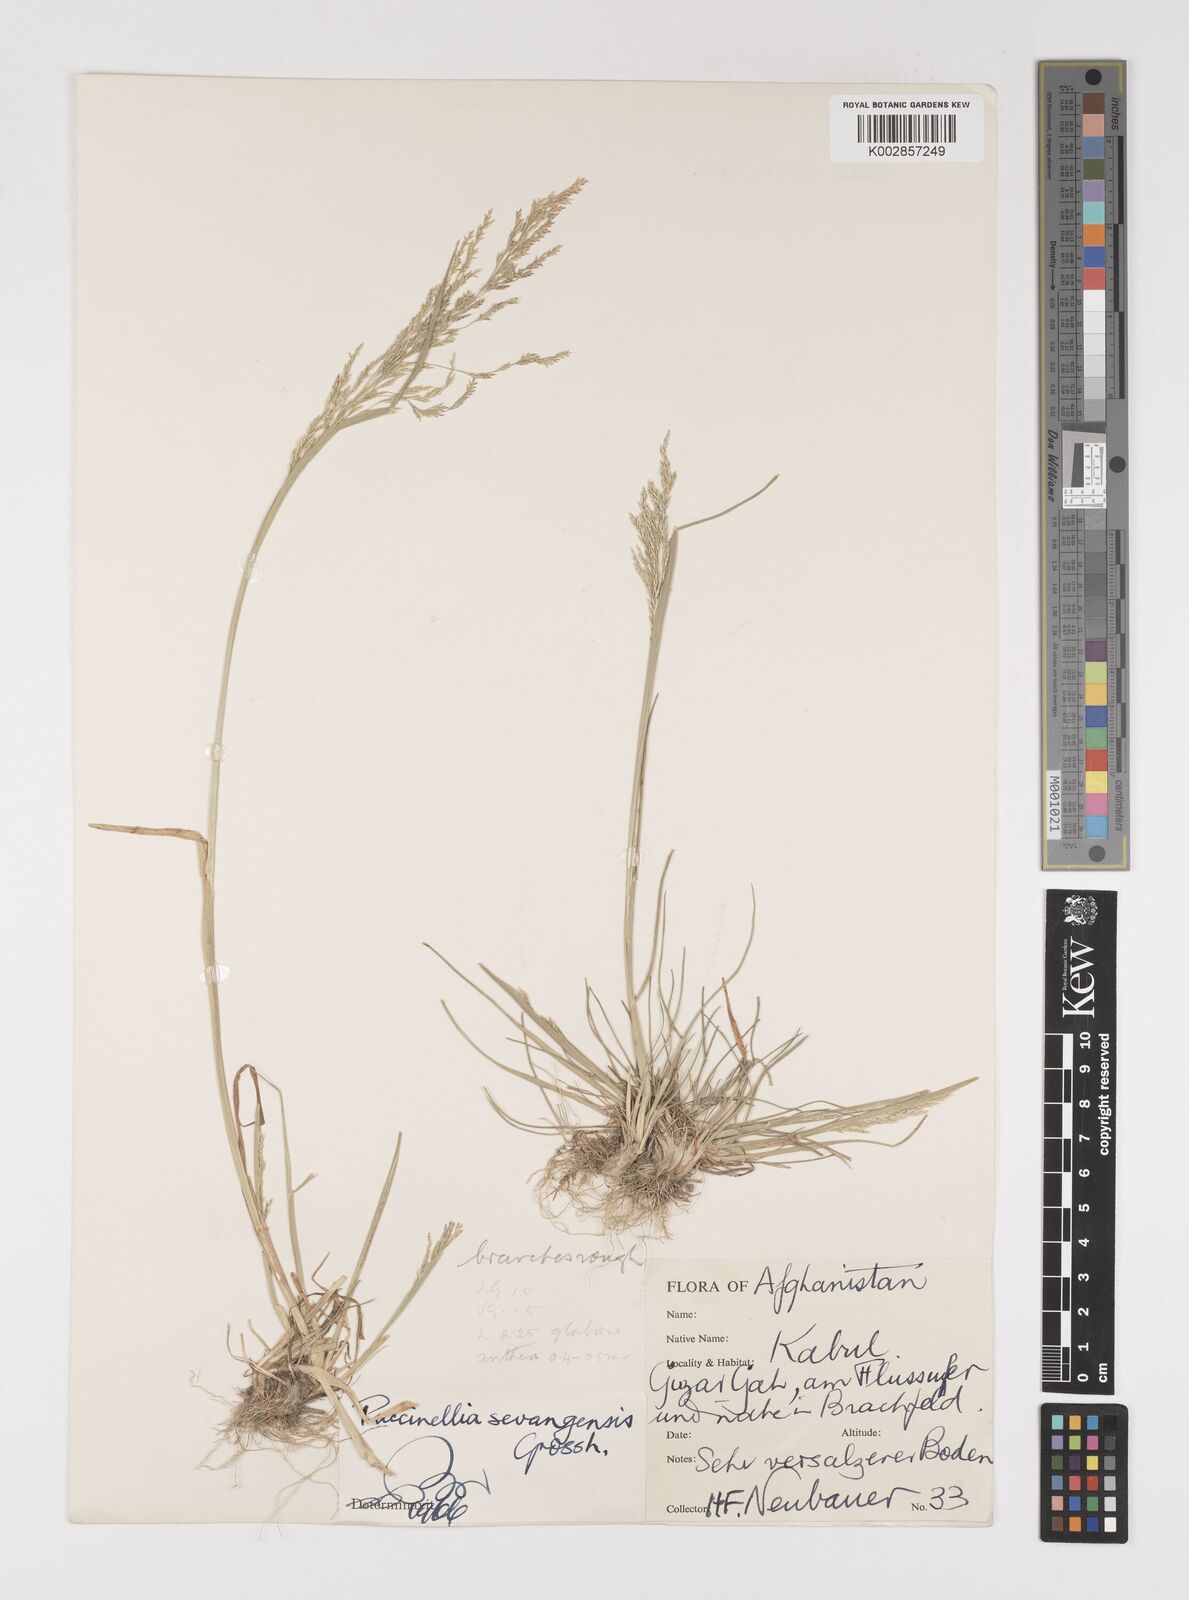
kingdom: Plantae
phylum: Tracheophyta
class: Liliopsida
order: Poales
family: Poaceae
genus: Puccinellia
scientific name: Puccinellia distans
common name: Weeping alkaligrass
